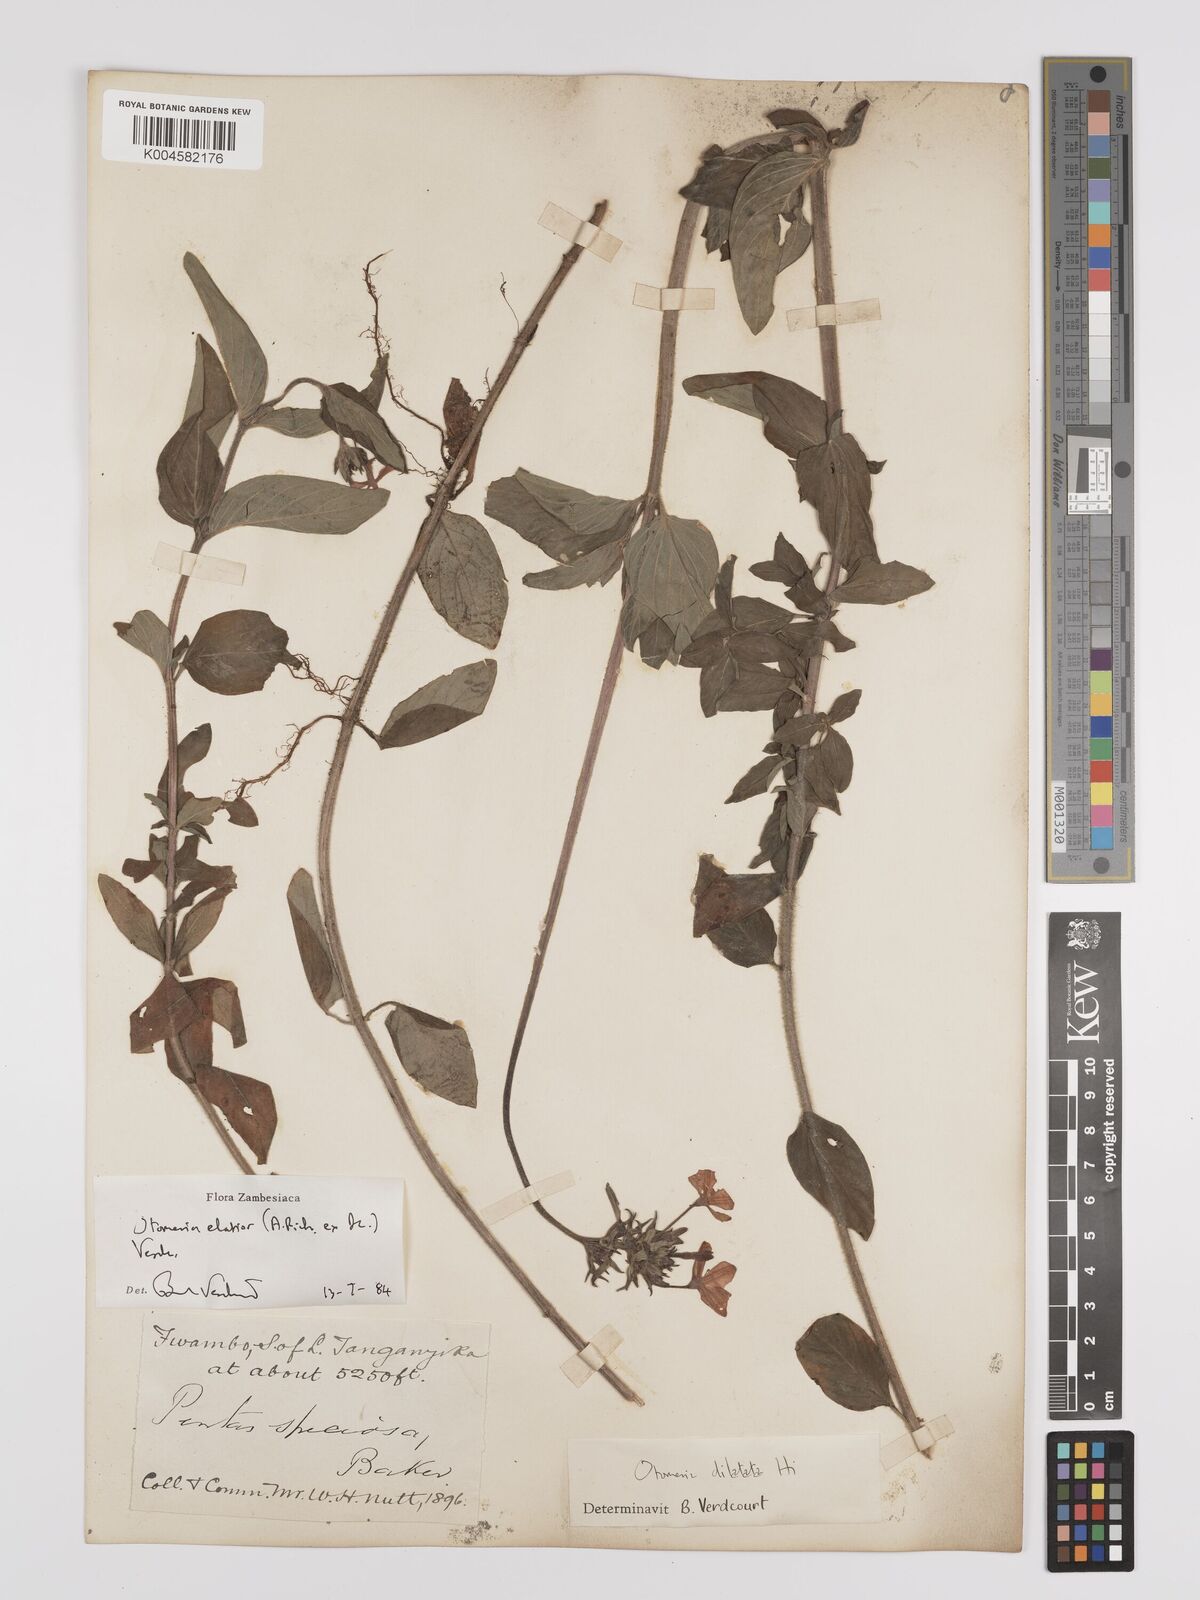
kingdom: Plantae
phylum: Tracheophyta
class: Magnoliopsida
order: Gentianales
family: Rubiaceae
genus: Otomeria
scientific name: Otomeria elatior
